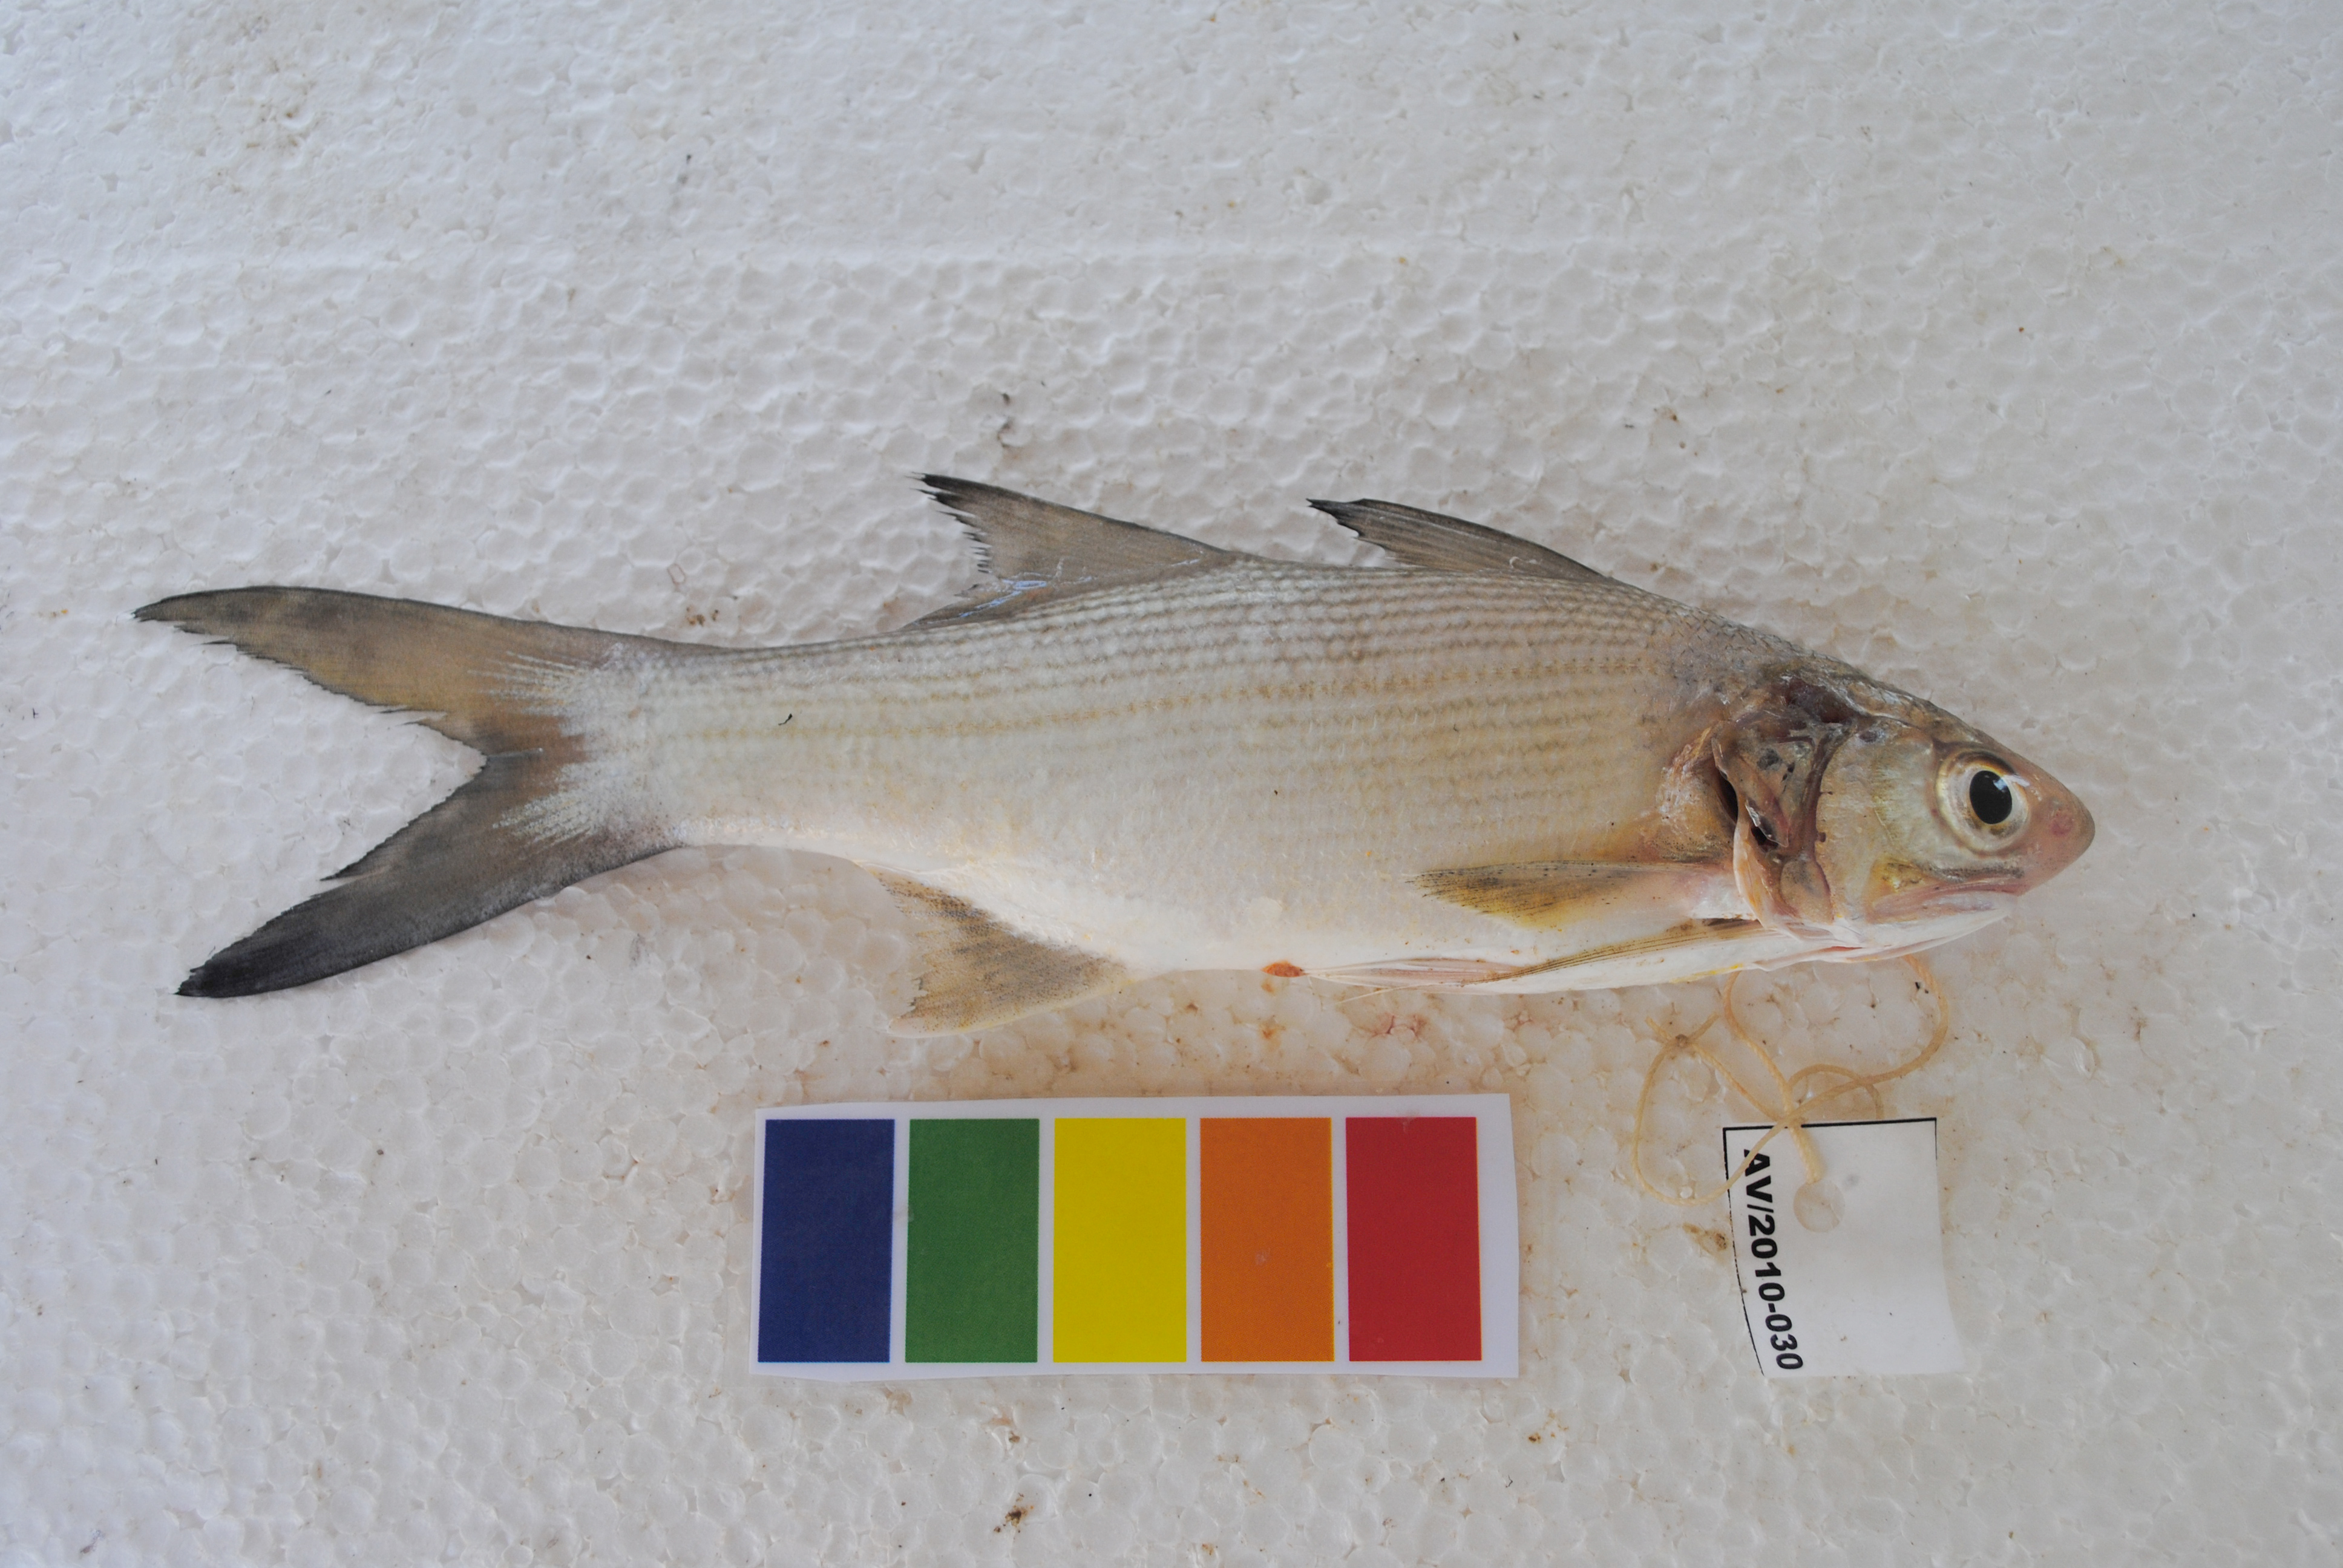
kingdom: Animalia
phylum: Chordata
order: Perciformes
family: Polynemidae
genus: Polydactylus
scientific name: Polydactylus plebeius
